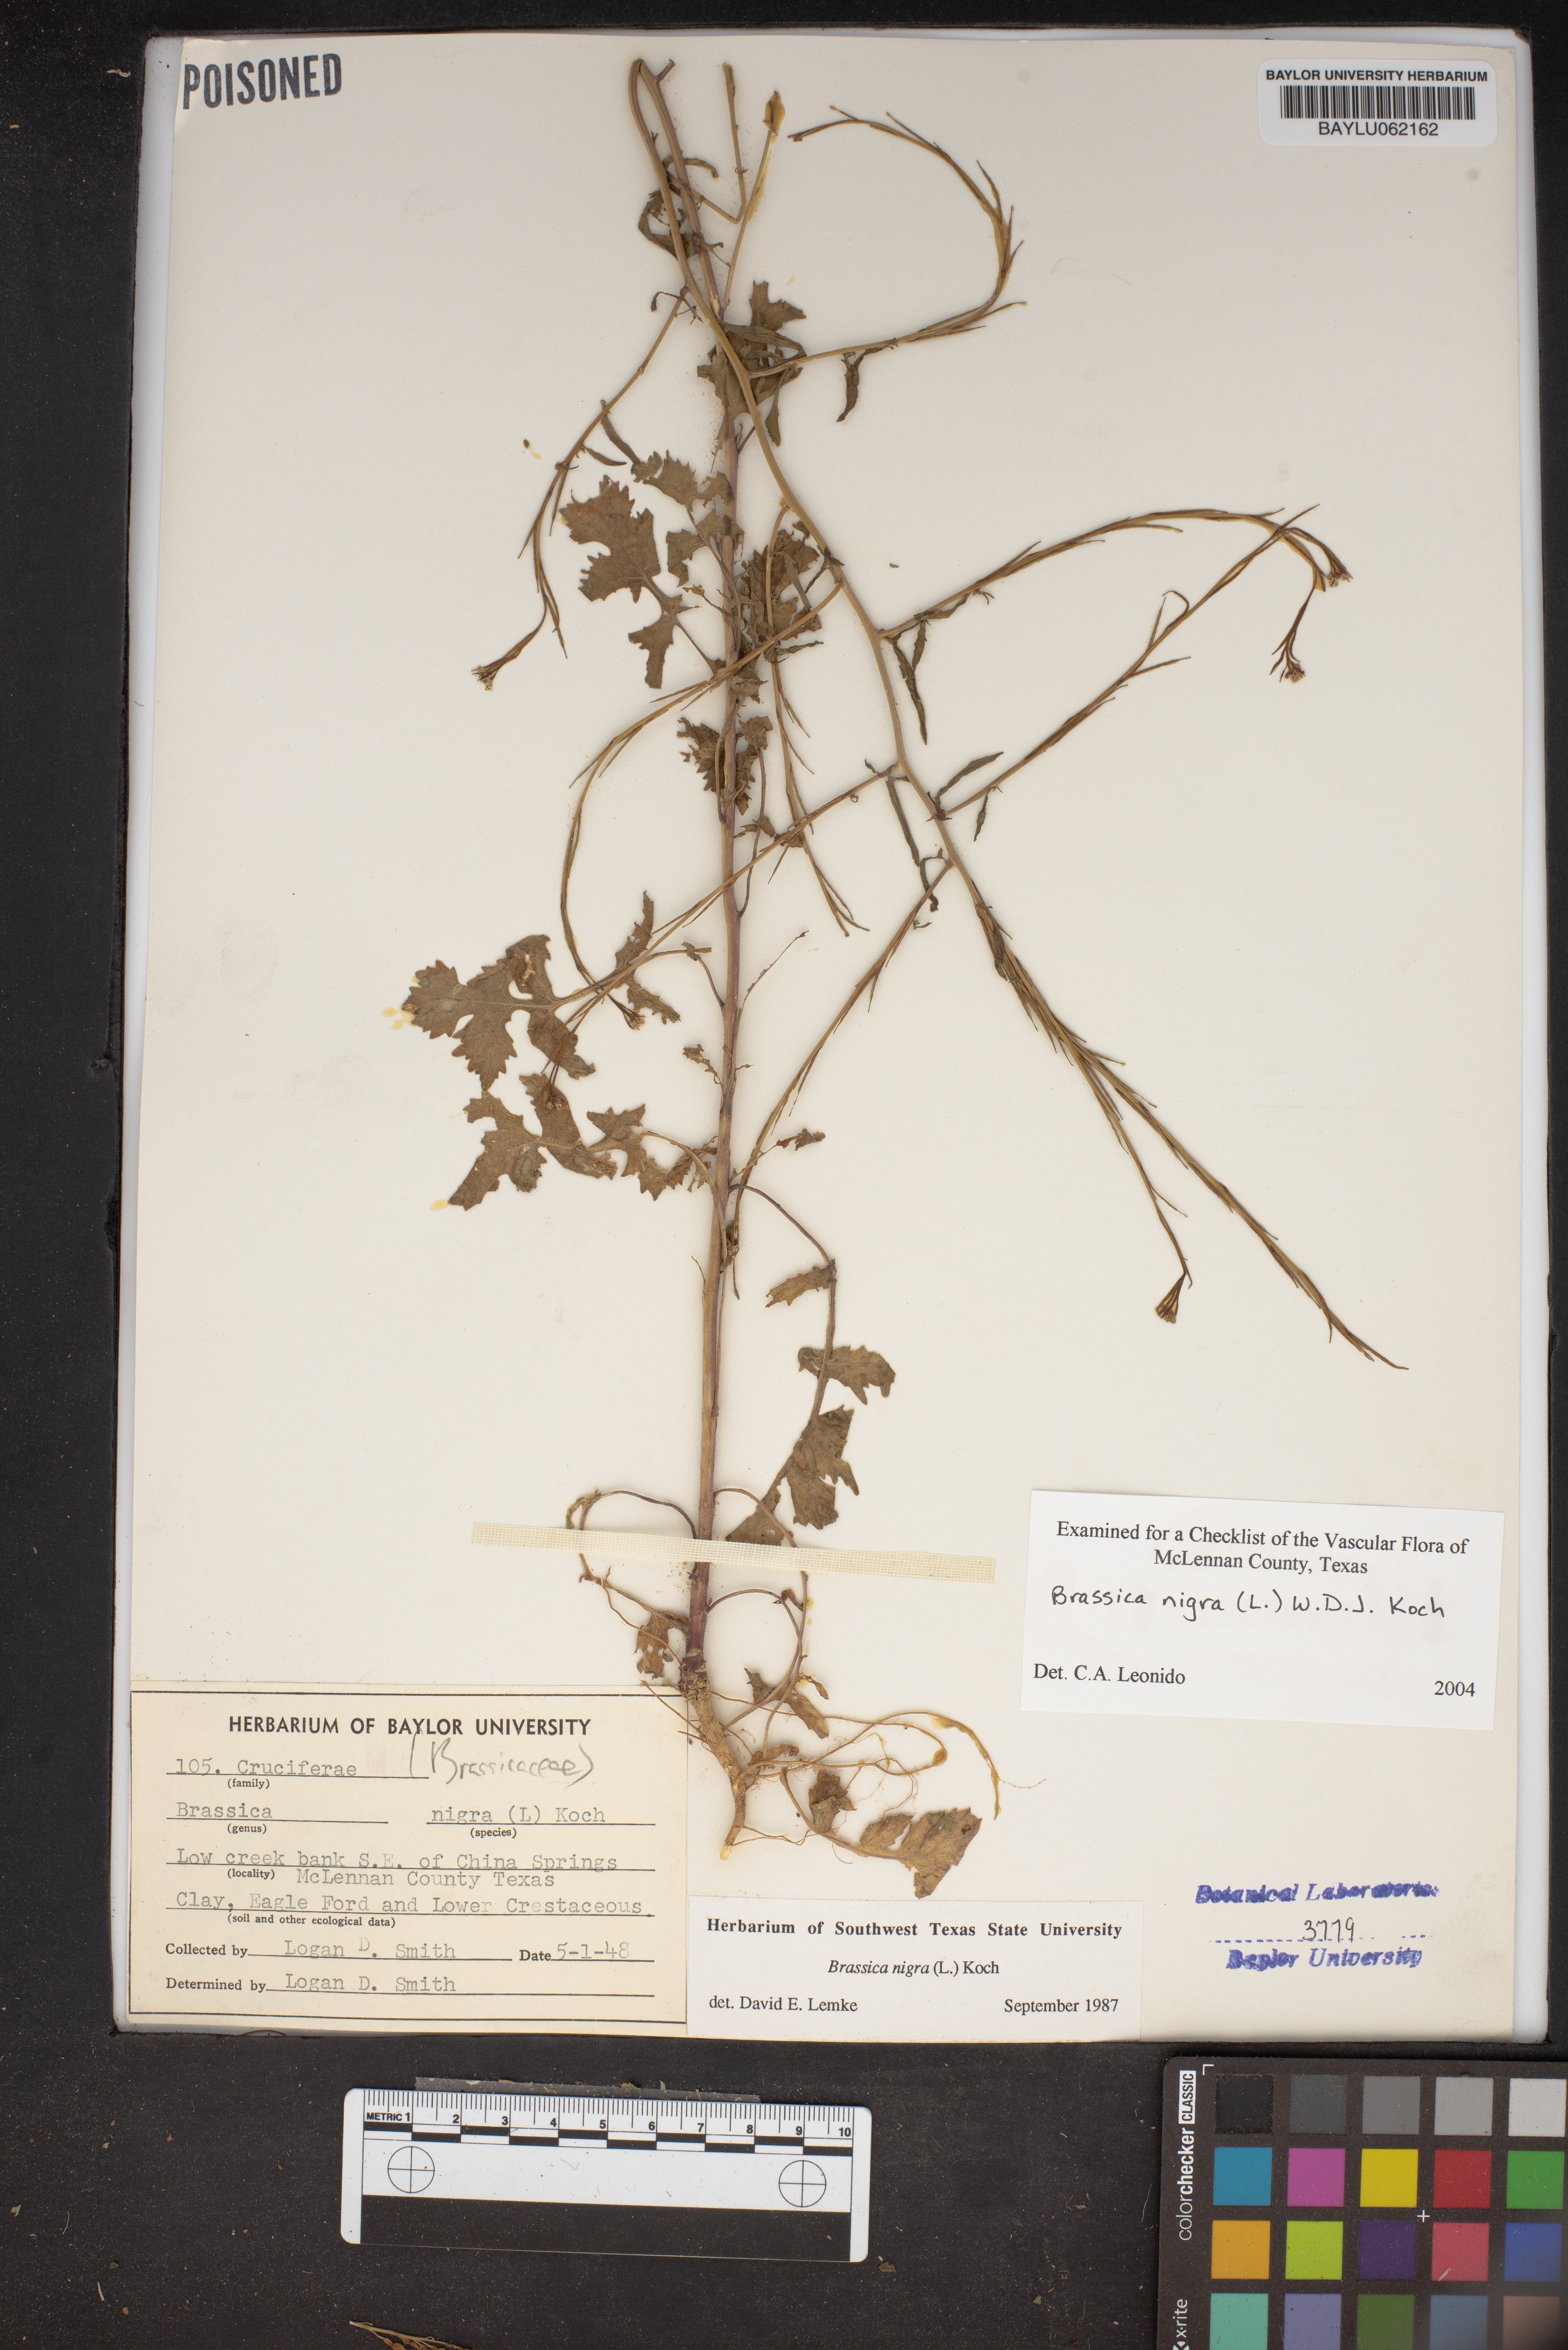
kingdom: Plantae
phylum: Tracheophyta
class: Magnoliopsida
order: Brassicales
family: Brassicaceae
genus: Brassica
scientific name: Brassica nigra
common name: Black mustard
